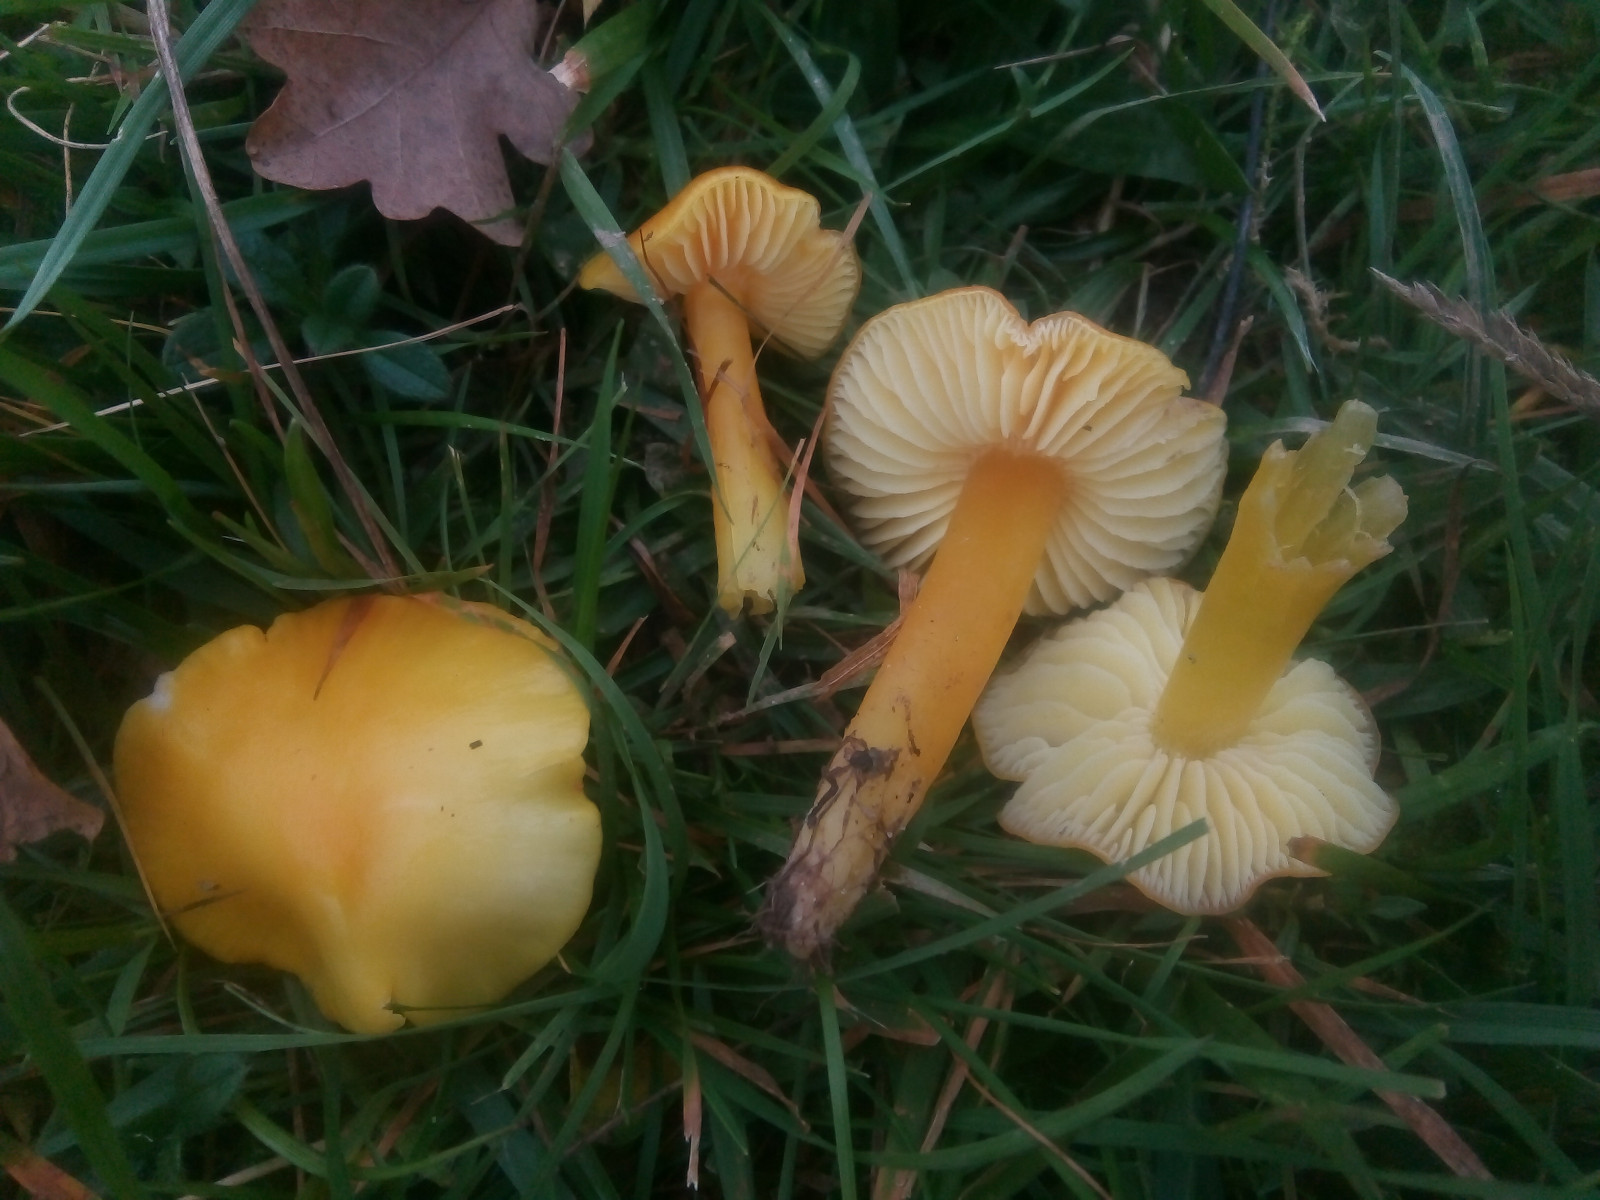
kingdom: Fungi
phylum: Basidiomycota
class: Agaricomycetes
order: Agaricales
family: Hygrophoraceae
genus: Hygrocybe
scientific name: Hygrocybe chlorophana
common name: gul vokshat
